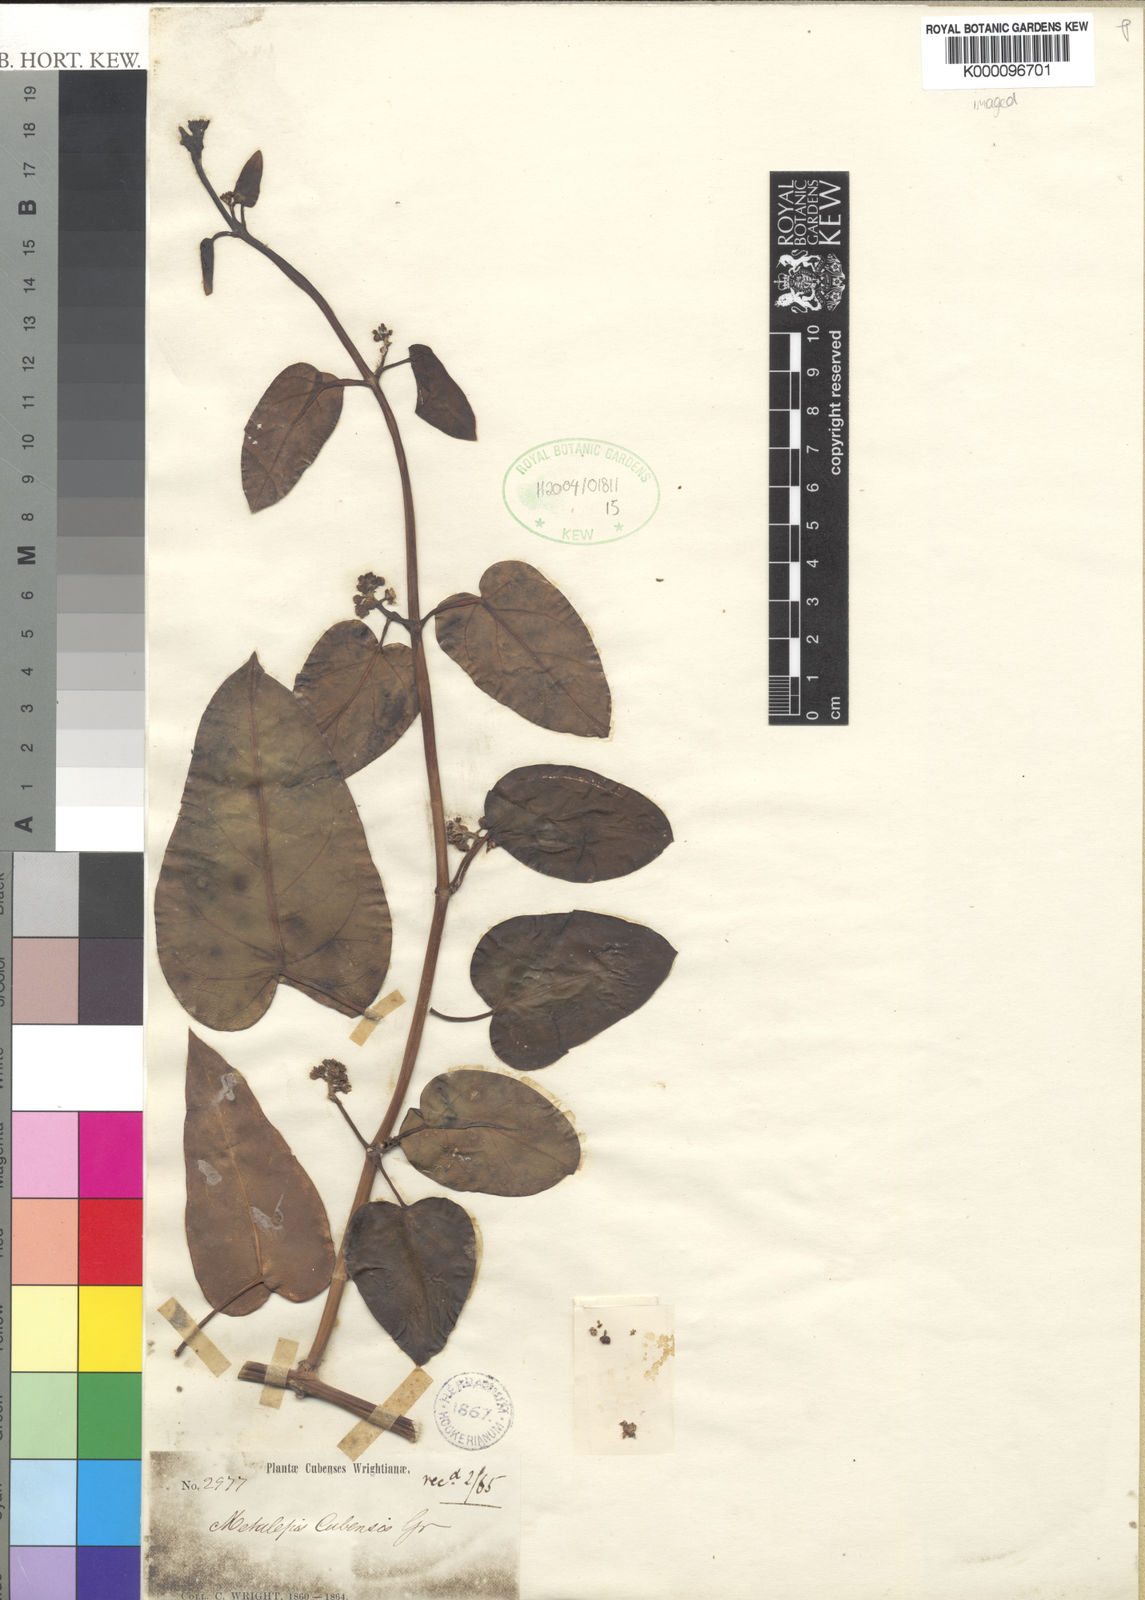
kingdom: Plantae
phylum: Tracheophyta
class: Magnoliopsida
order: Gentianales
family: Apocynaceae
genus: Cynanchum
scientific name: Cynanchum cubense
